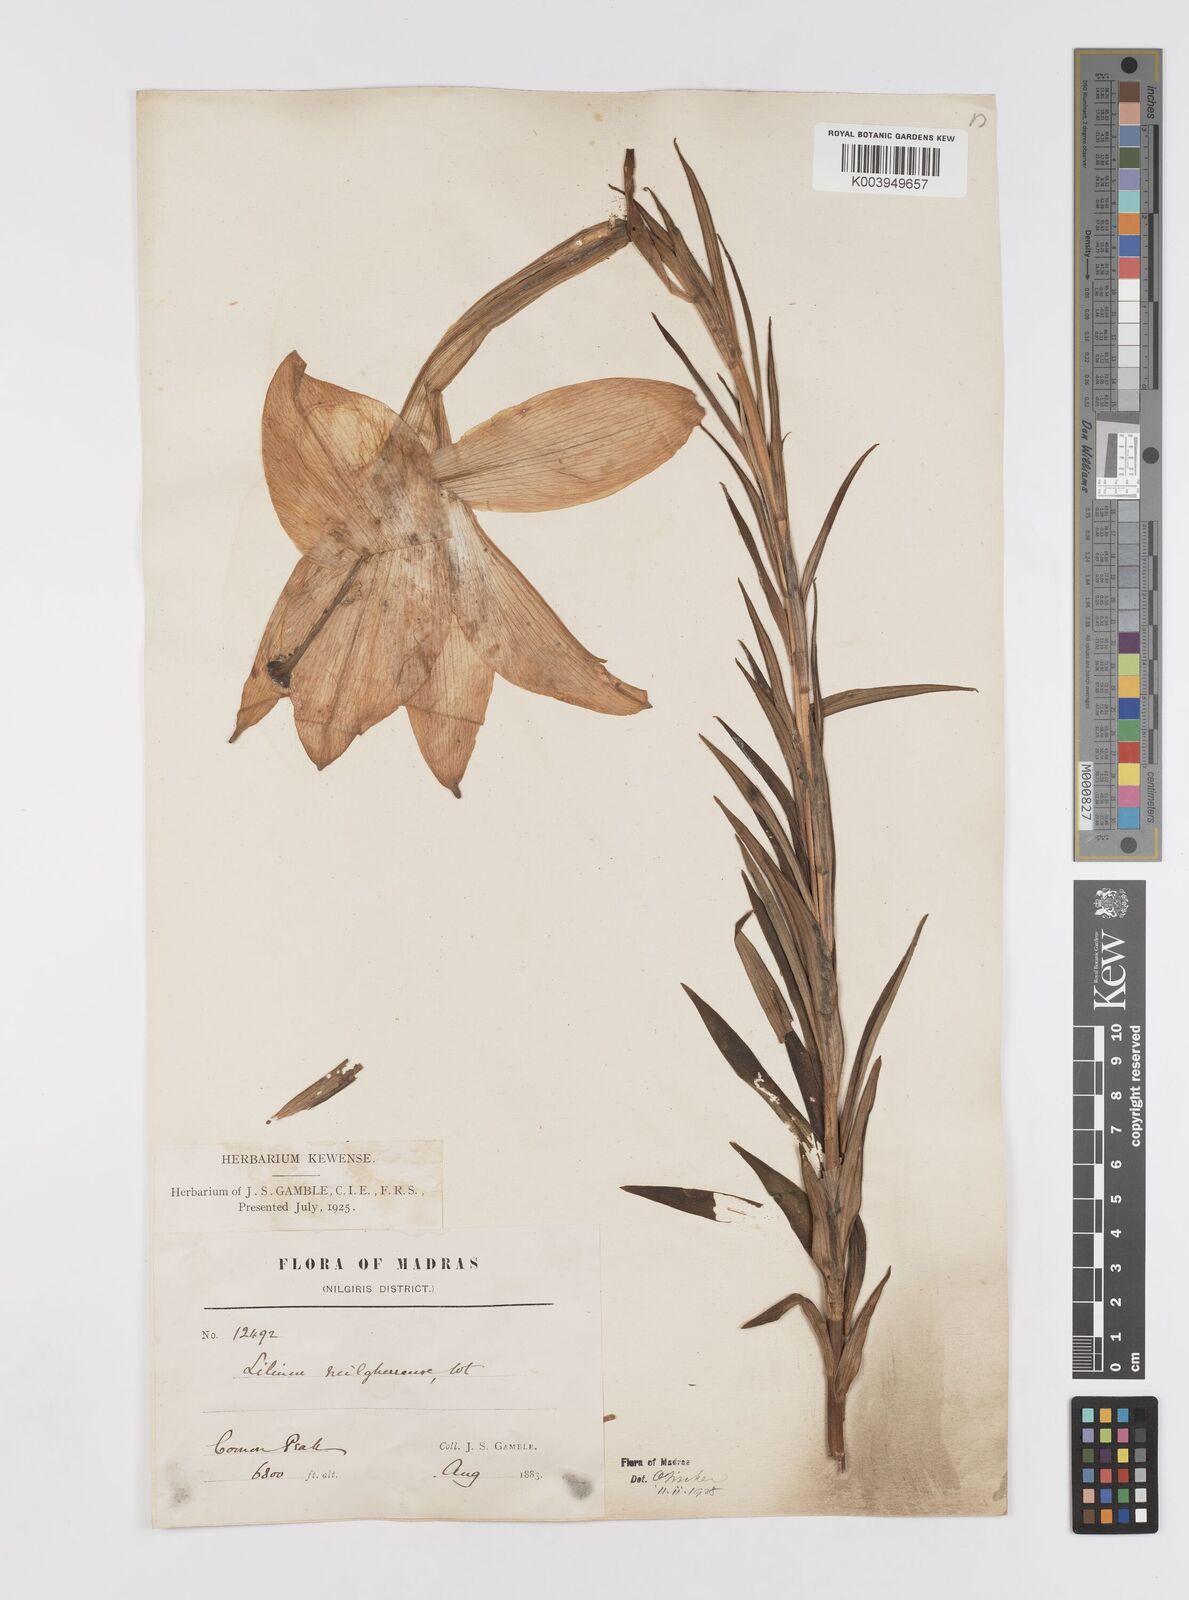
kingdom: Plantae
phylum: Tracheophyta
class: Liliopsida
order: Liliales
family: Liliaceae
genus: Lilium
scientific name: Lilium wallichianum
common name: Wallich's lily
